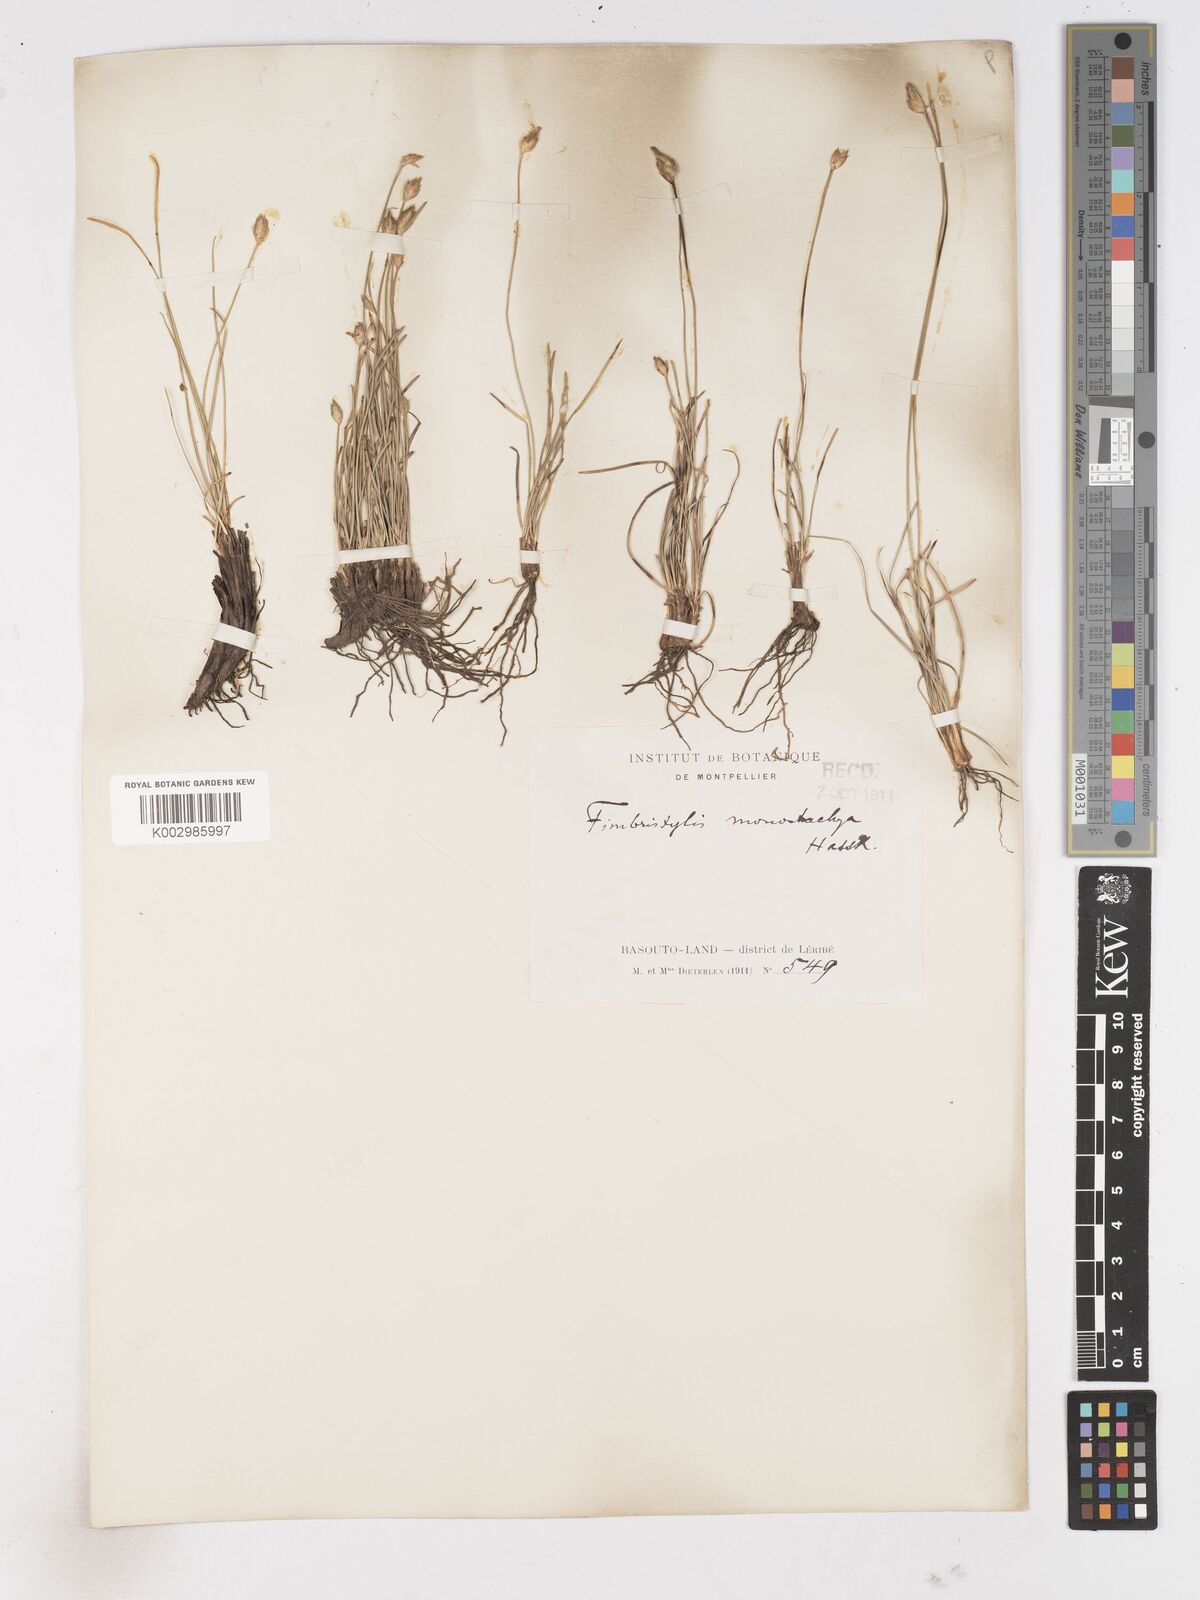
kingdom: Plantae
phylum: Tracheophyta
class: Liliopsida
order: Poales
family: Cyperaceae
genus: Abildgaardia
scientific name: Abildgaardia ovata
